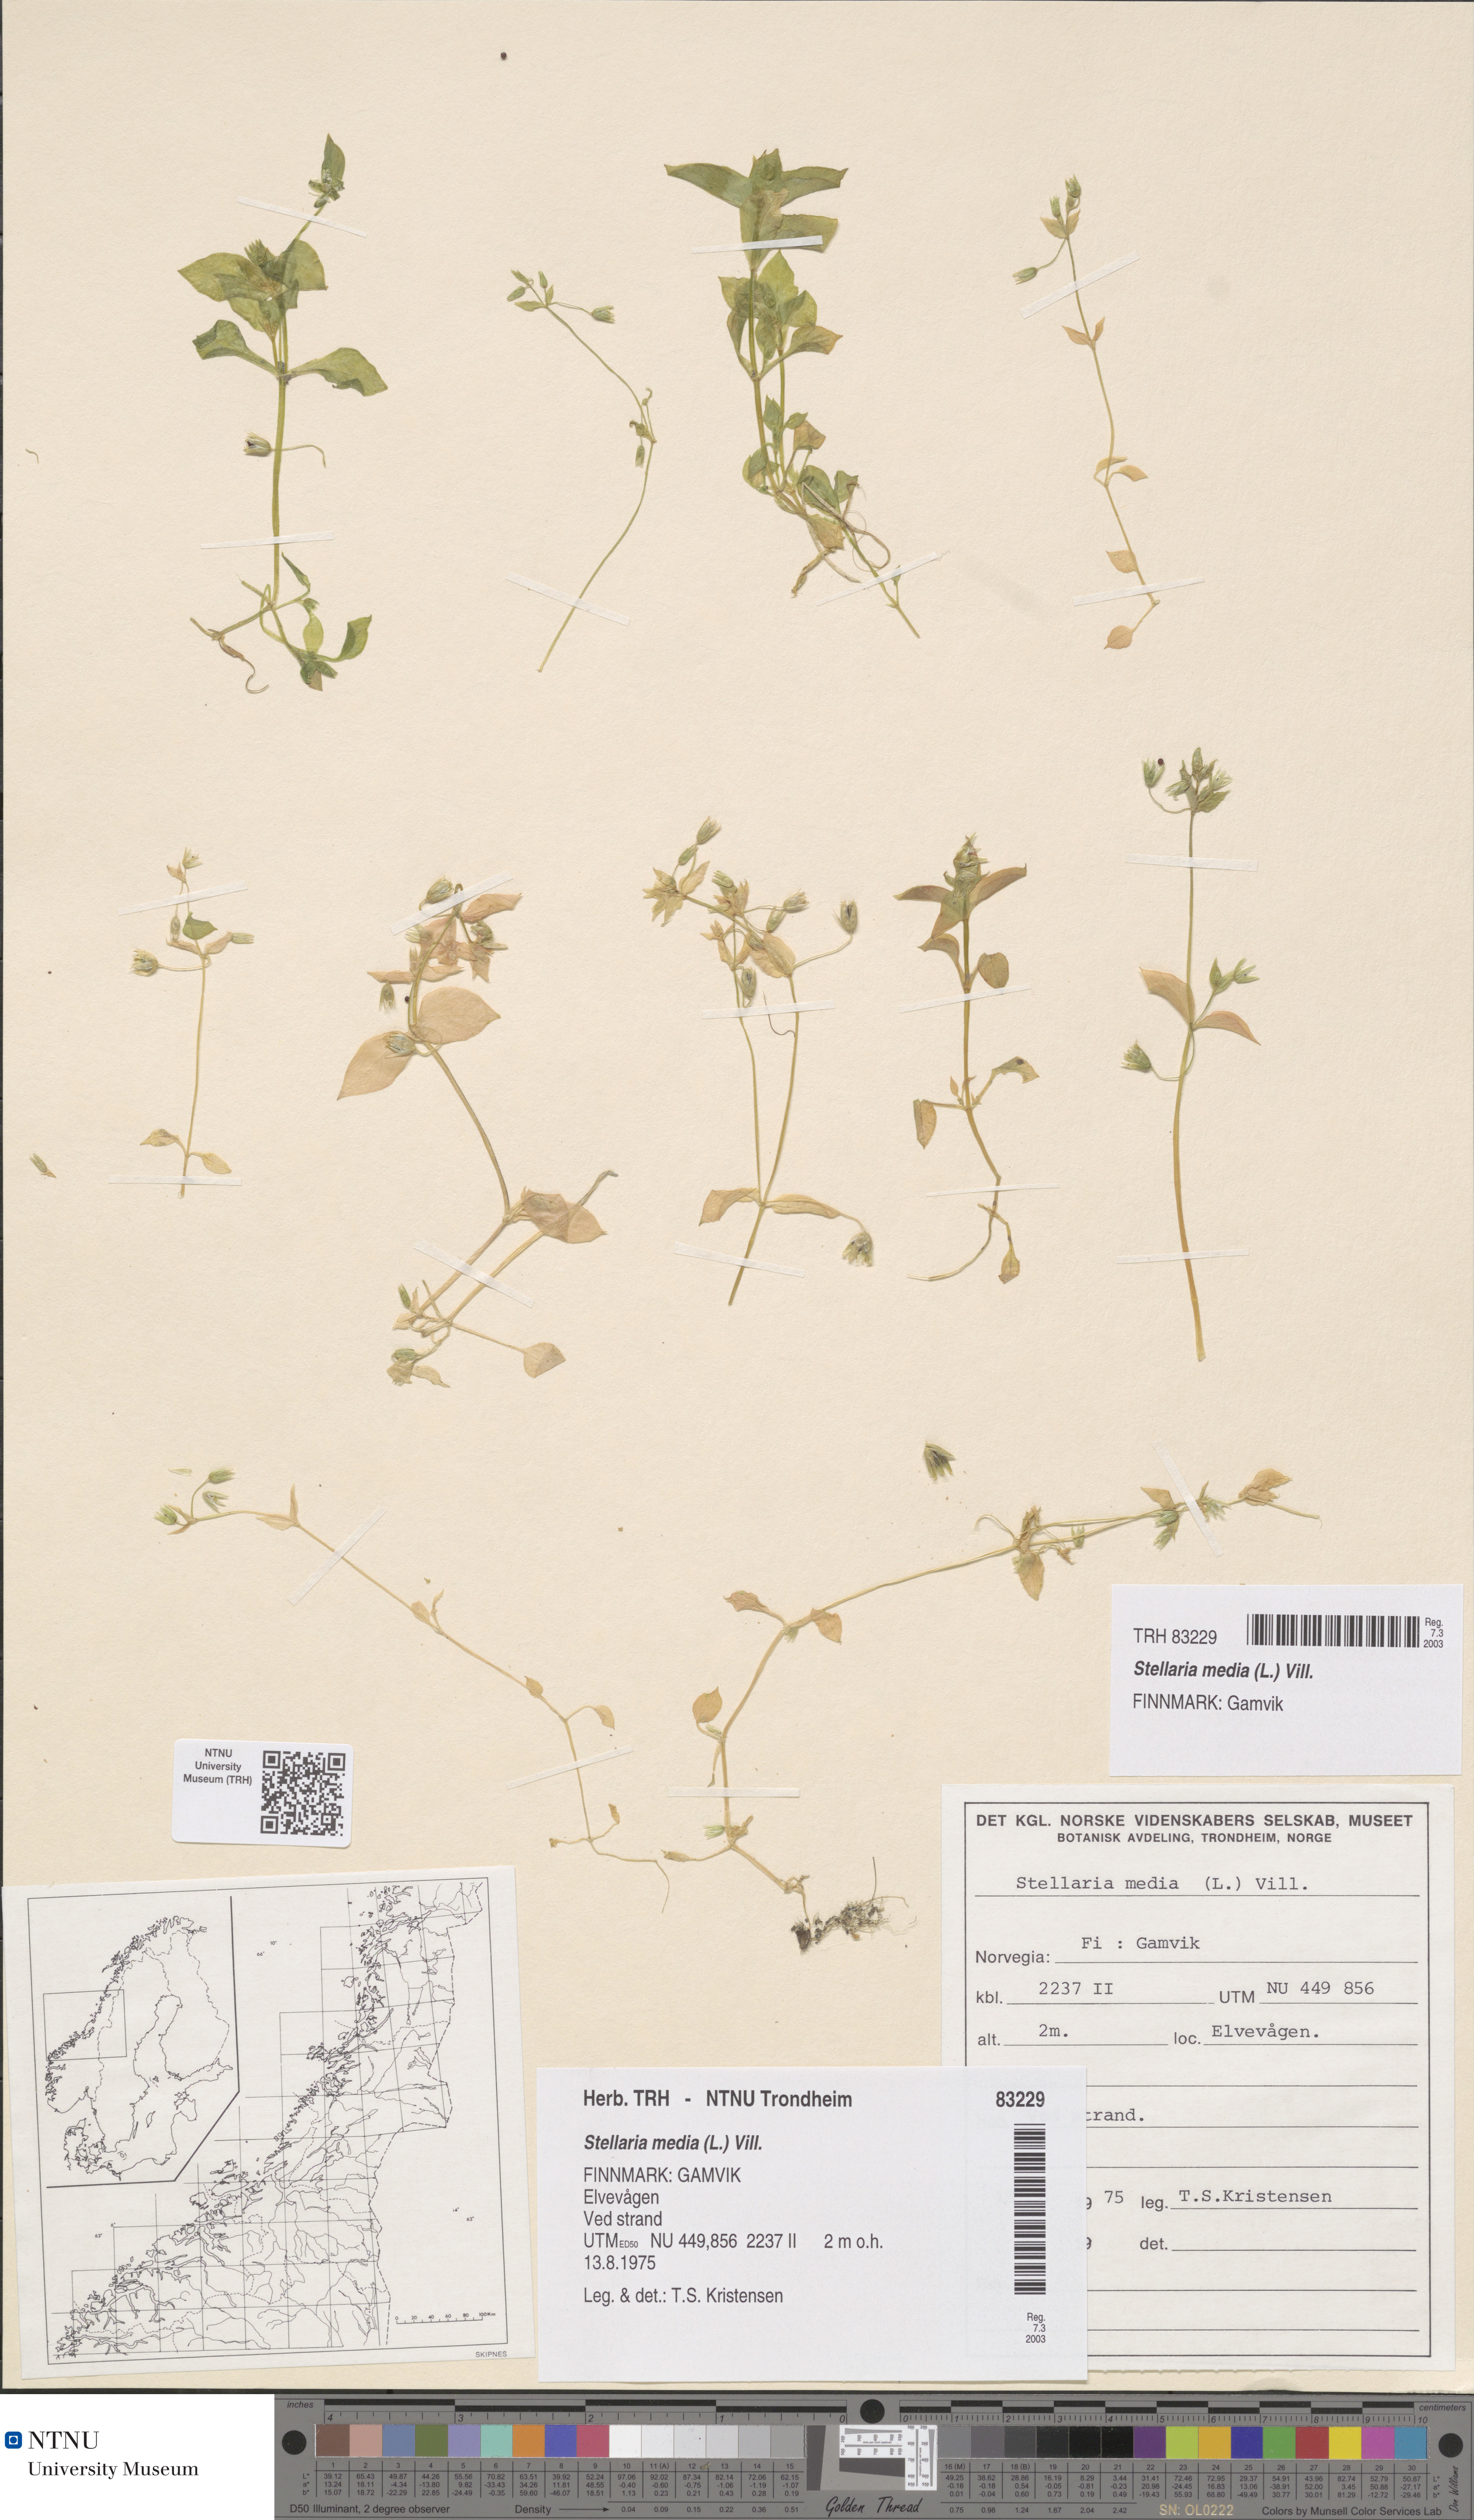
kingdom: Plantae
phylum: Tracheophyta
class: Magnoliopsida
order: Caryophyllales
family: Caryophyllaceae
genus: Stellaria
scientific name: Stellaria media
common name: Common chickweed
